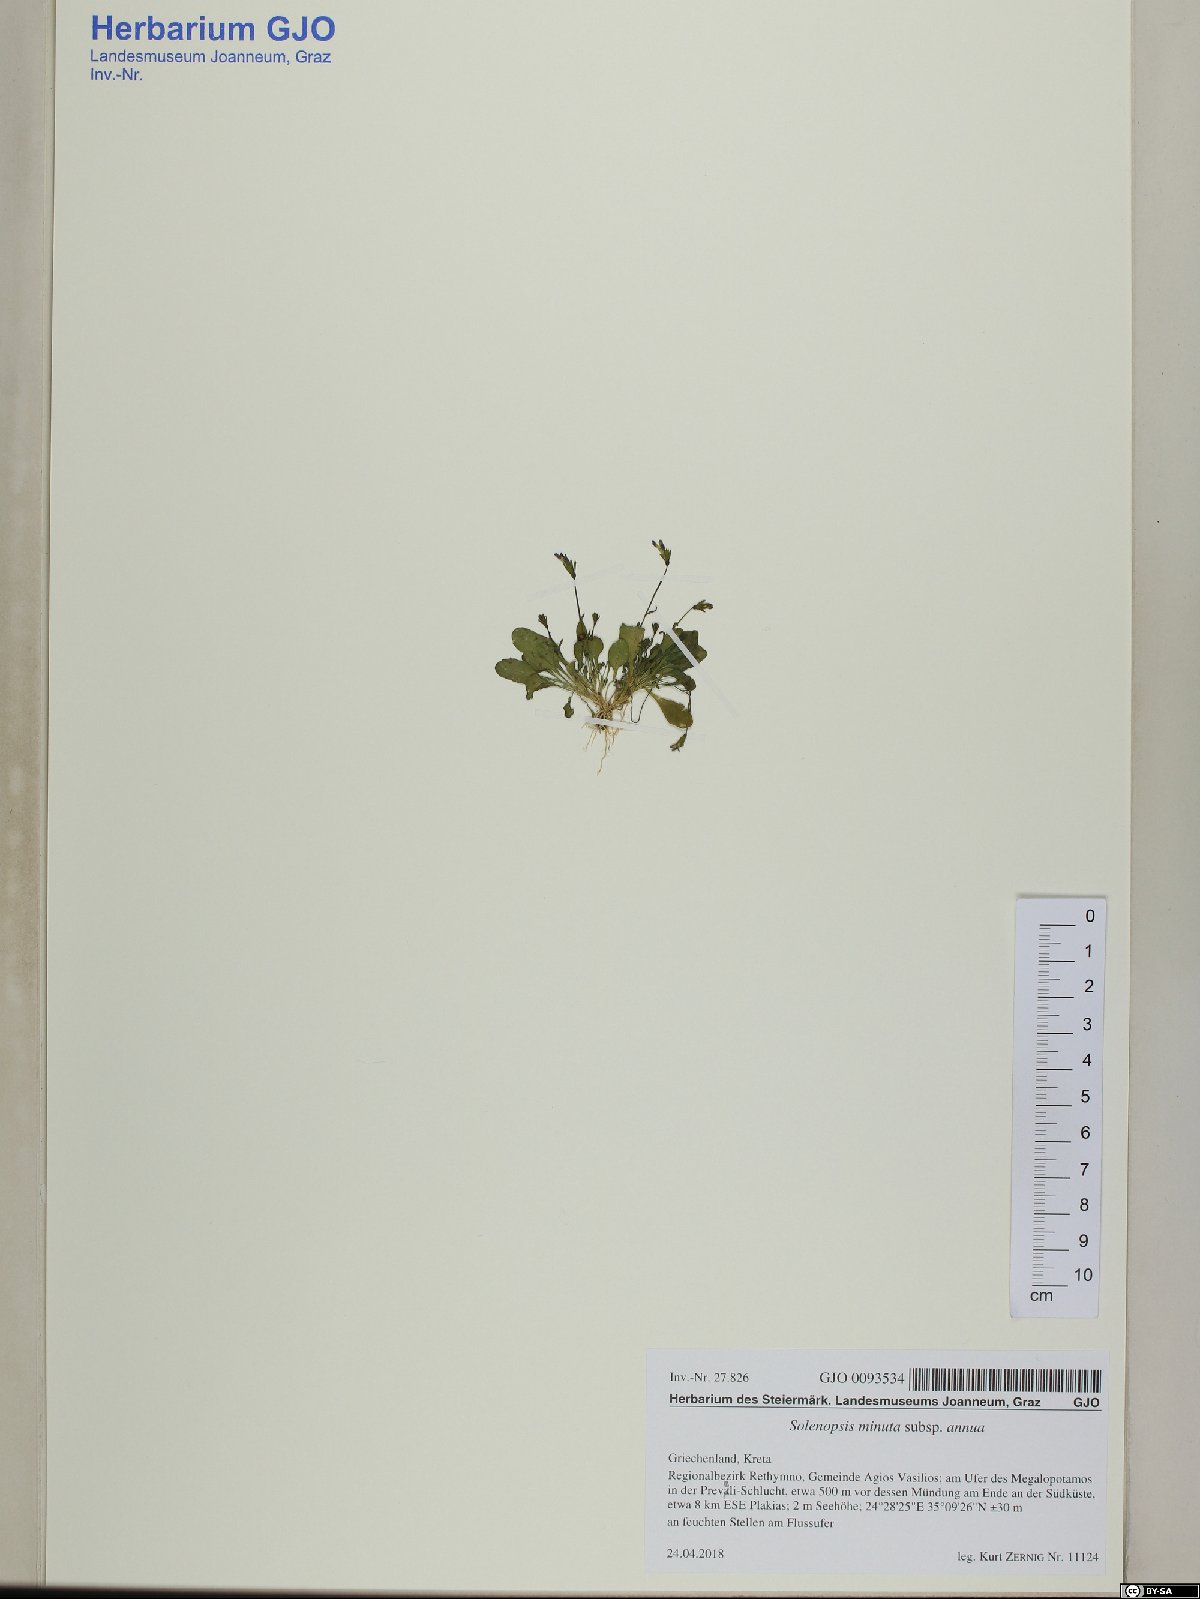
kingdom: Plantae
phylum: Tracheophyta
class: Magnoliopsida
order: Asterales
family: Campanulaceae
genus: Solenopsis
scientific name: Solenopsis annua
